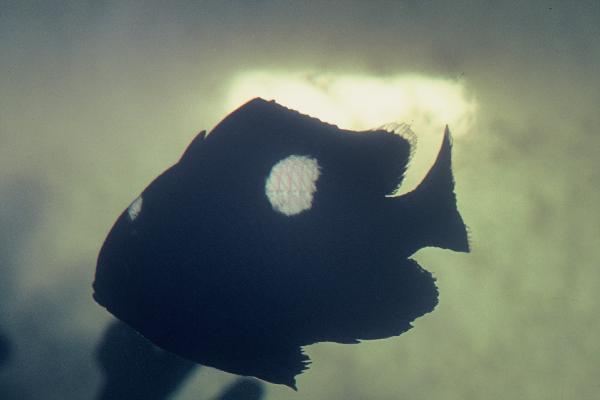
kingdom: Animalia
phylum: Chordata
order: Perciformes
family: Pomacentridae
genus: Dascyllus
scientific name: Dascyllus trimaculatus
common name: Threespot dascyllus
